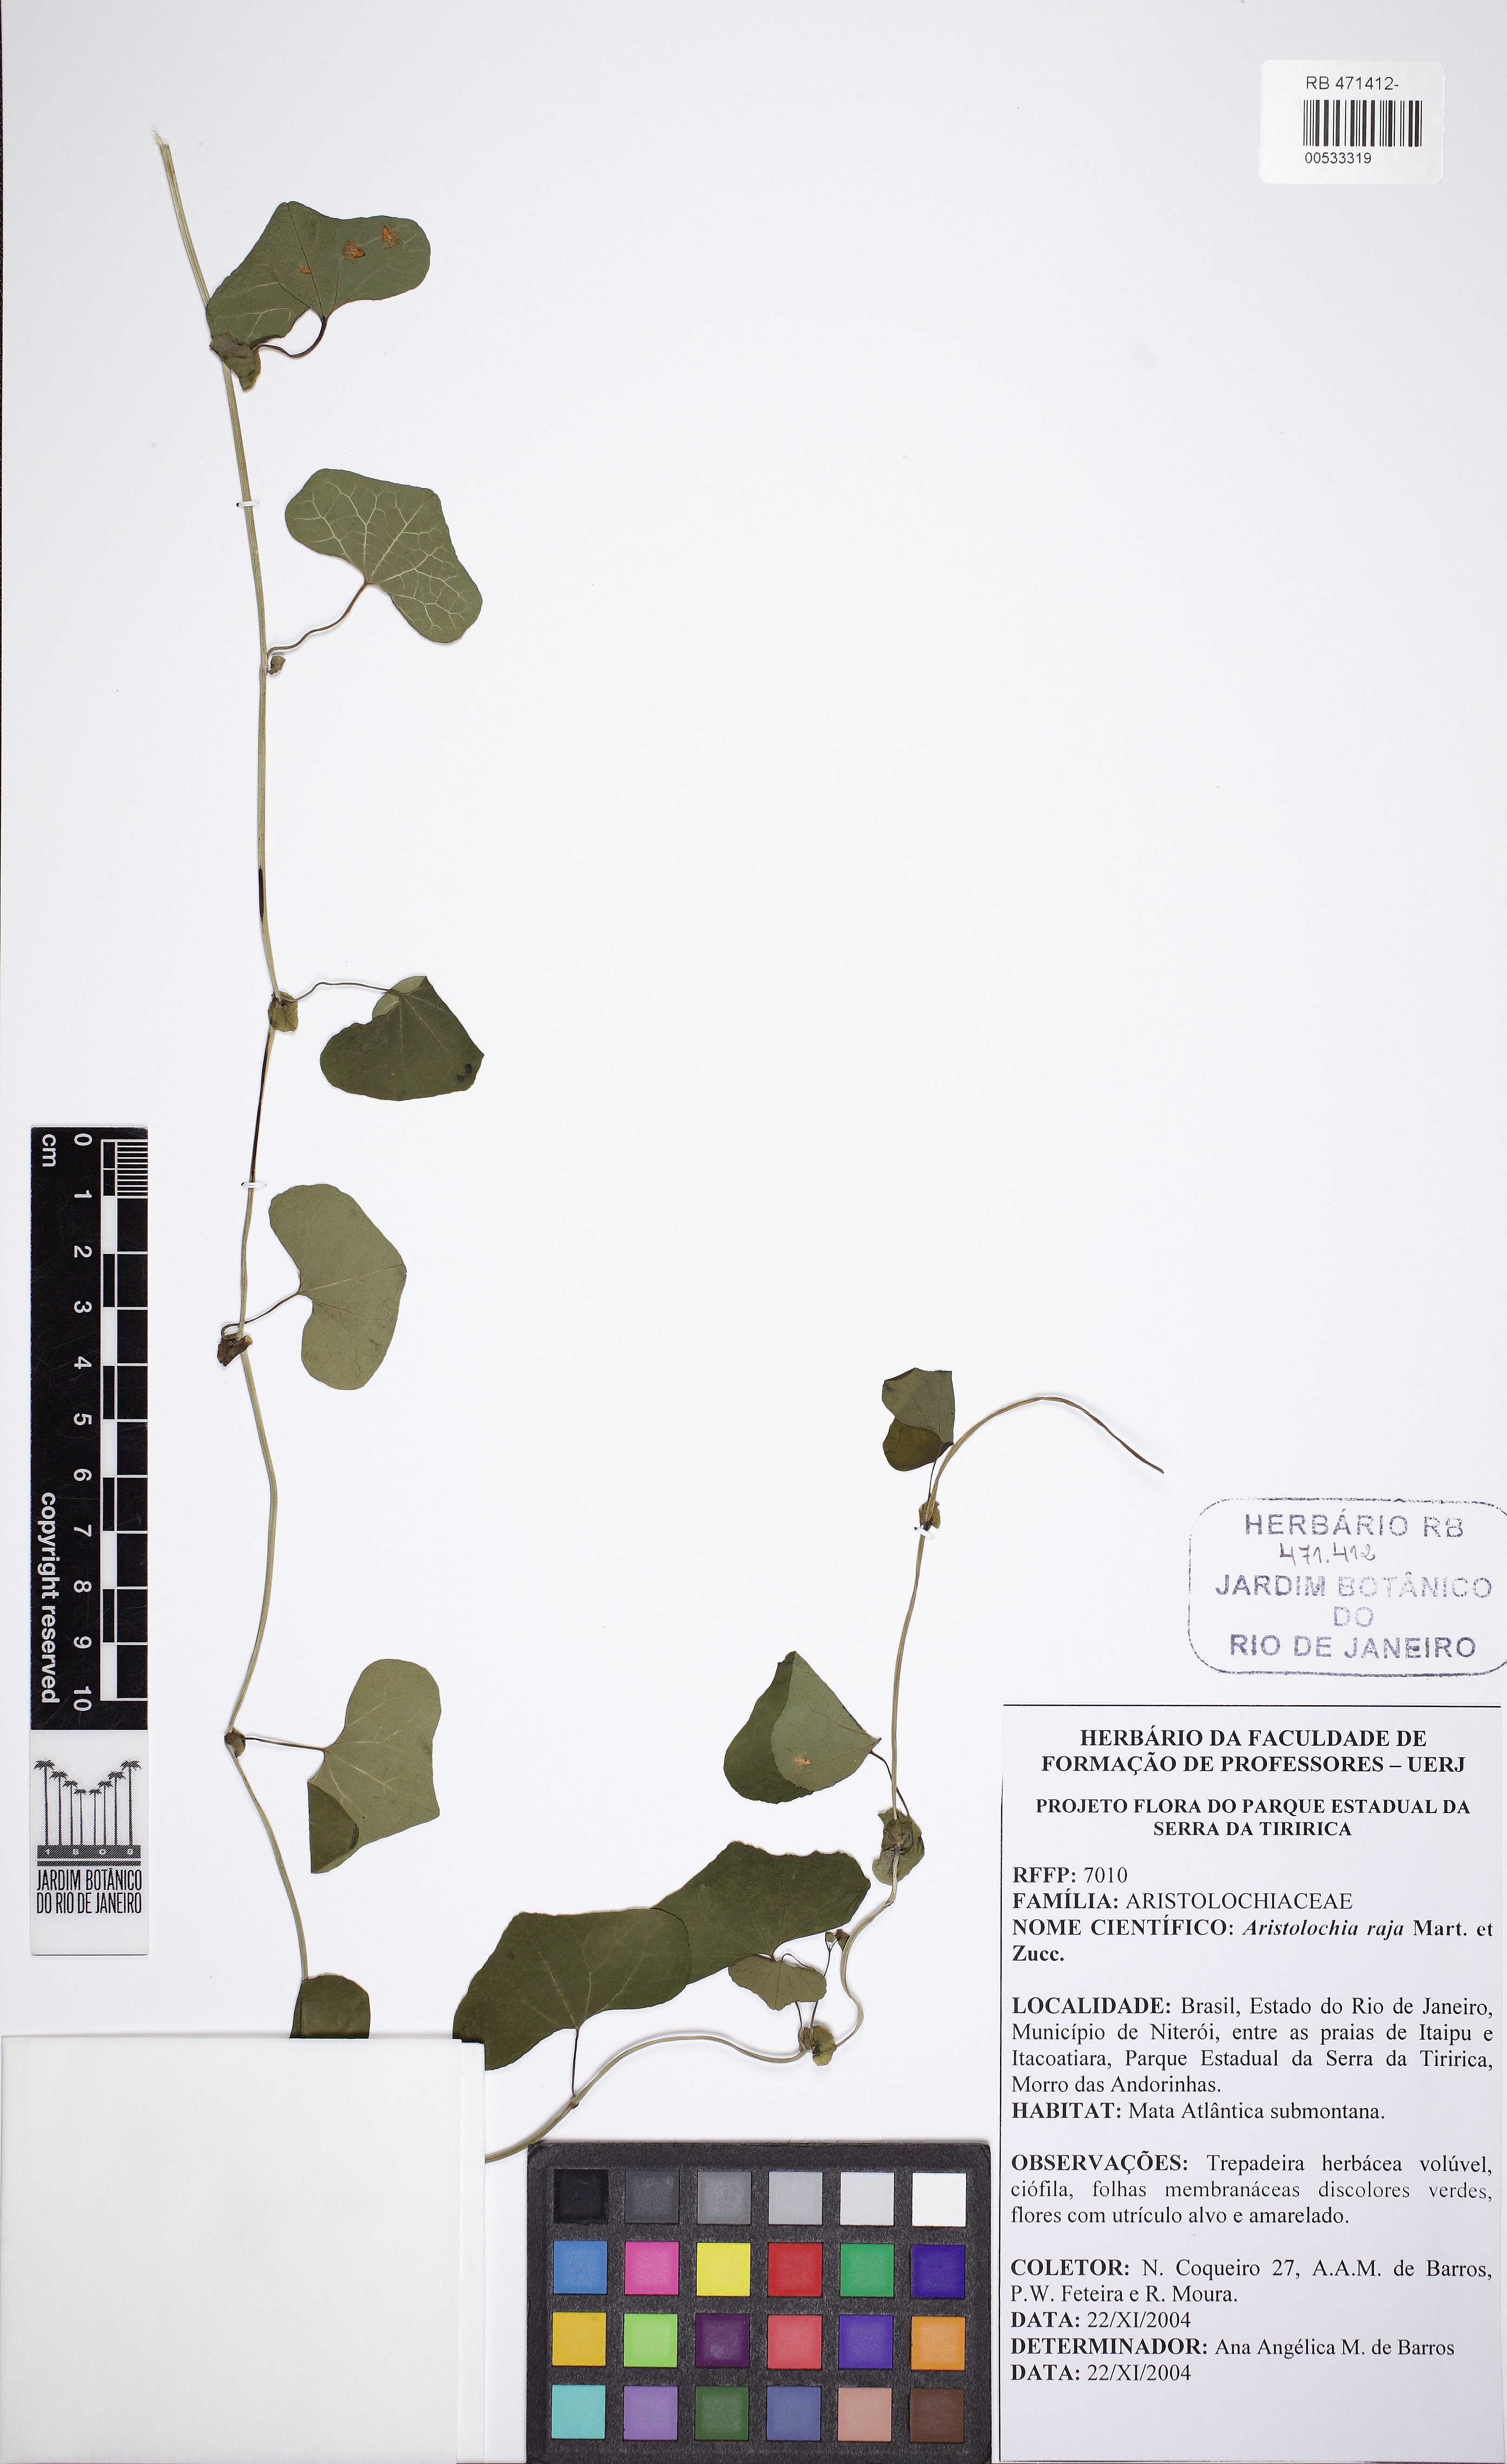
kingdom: Plantae
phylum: Tracheophyta
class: Magnoliopsida
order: Piperales
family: Aristolochiaceae
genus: Aristolochia
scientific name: Aristolochia raja
